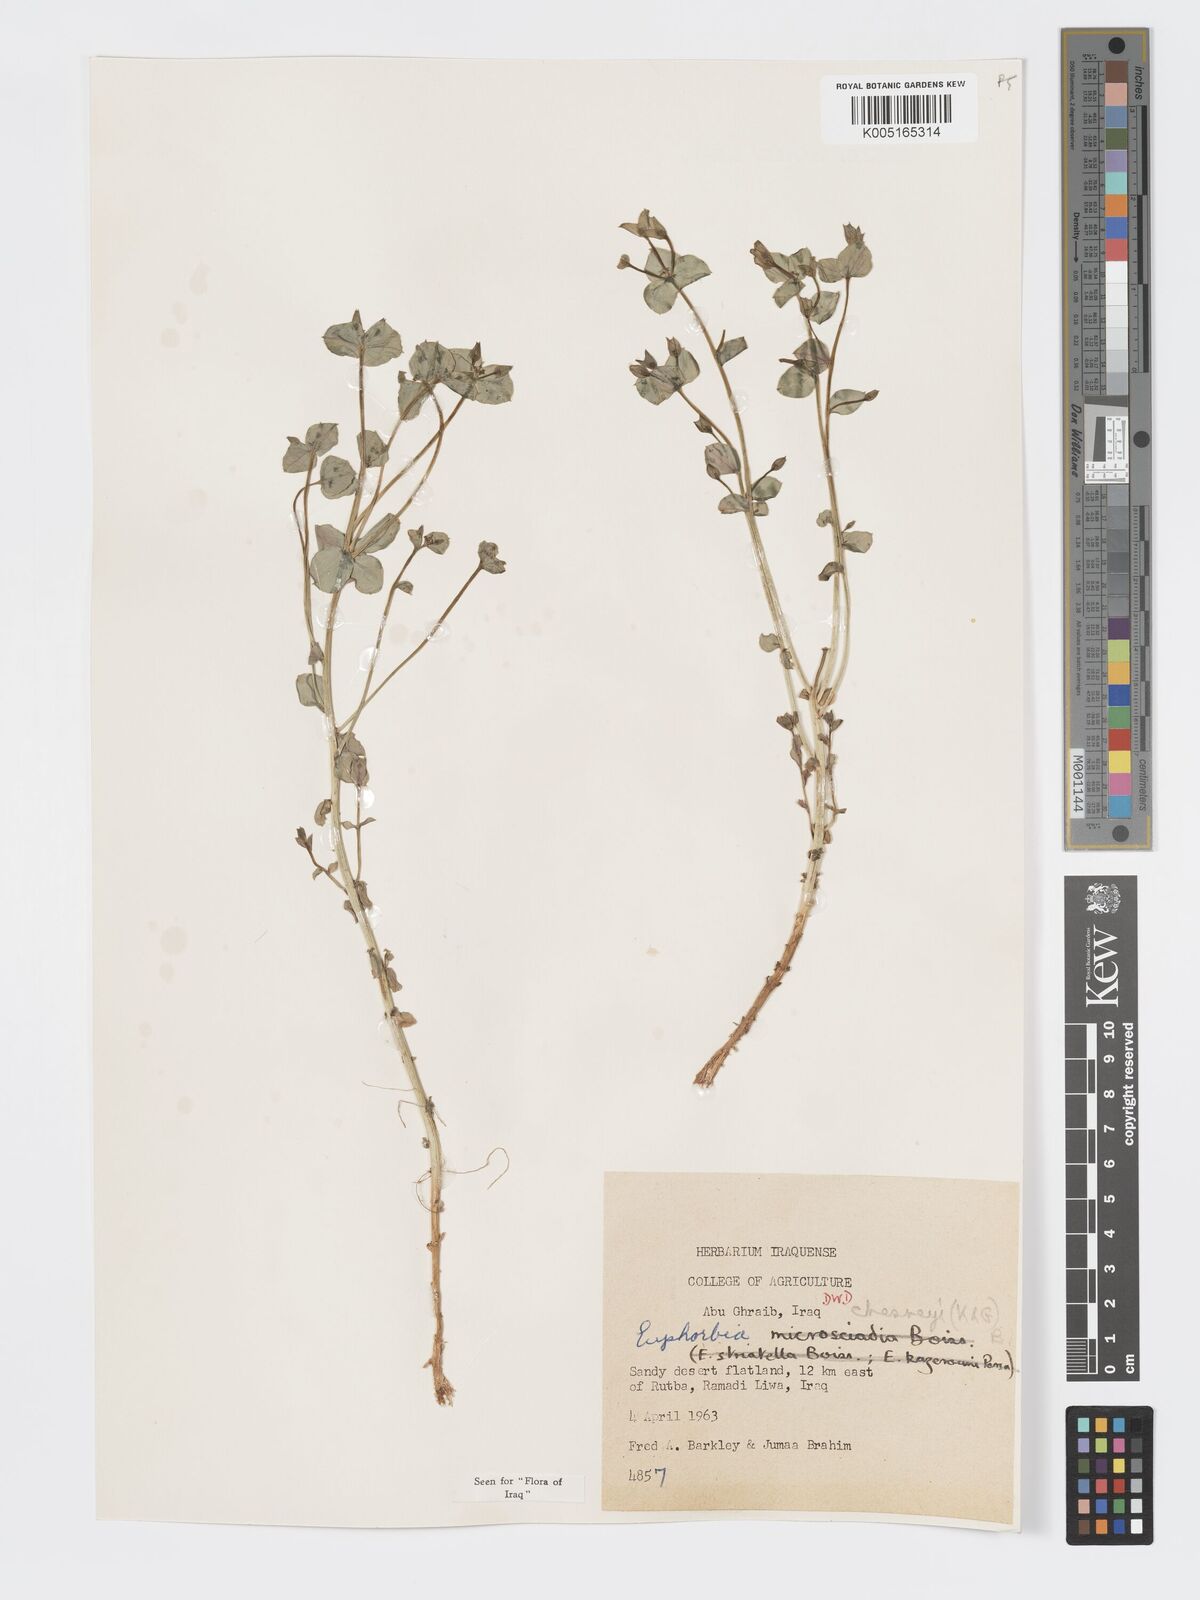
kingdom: Plantae
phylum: Tracheophyta
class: Magnoliopsida
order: Malpighiales
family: Euphorbiaceae
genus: Euphorbia
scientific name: Euphorbia cuspidata
